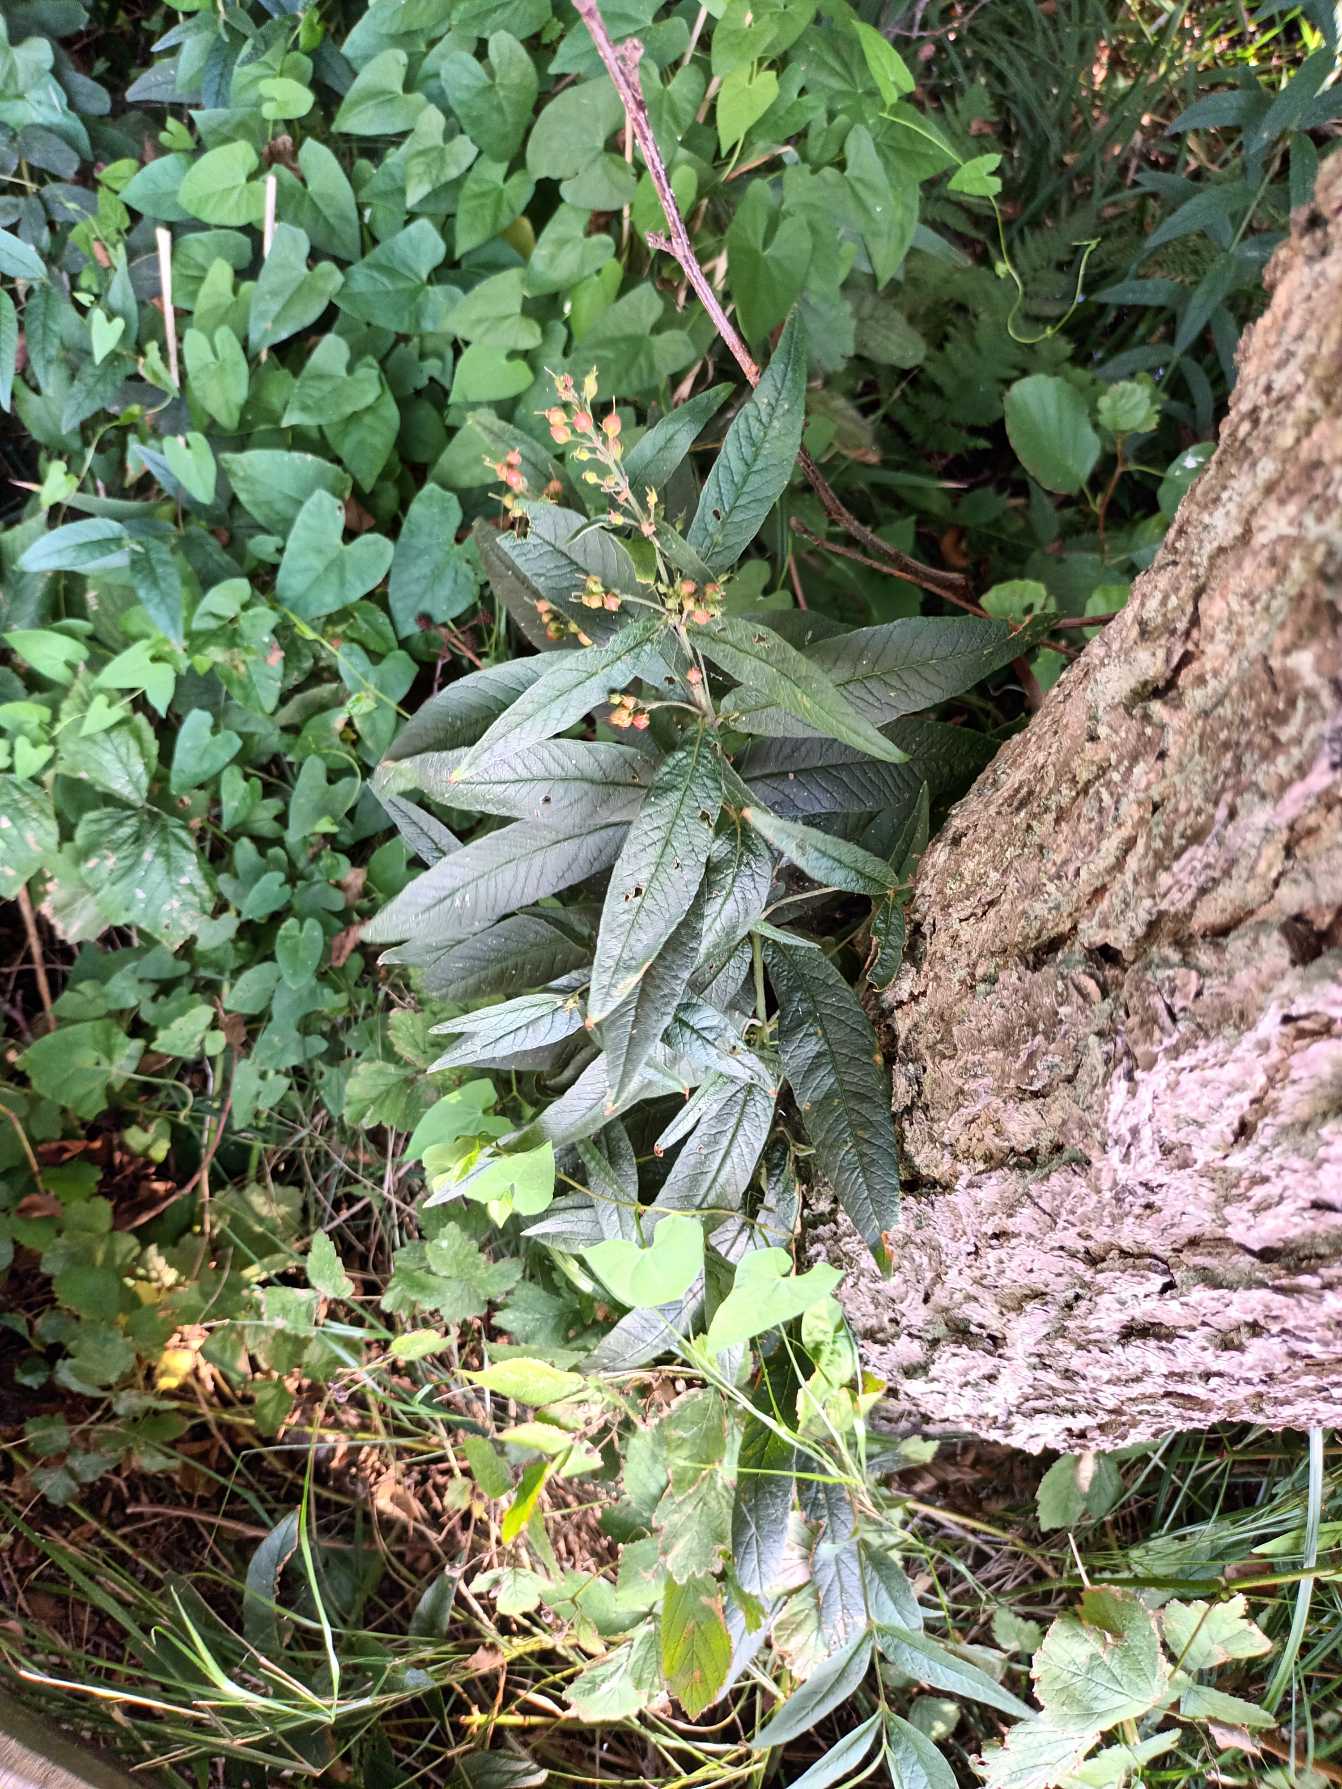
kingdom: Plantae
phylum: Tracheophyta
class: Magnoliopsida
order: Ericales
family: Primulaceae
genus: Lysimachia
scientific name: Lysimachia vulgaris
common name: Almindelig fredløs
